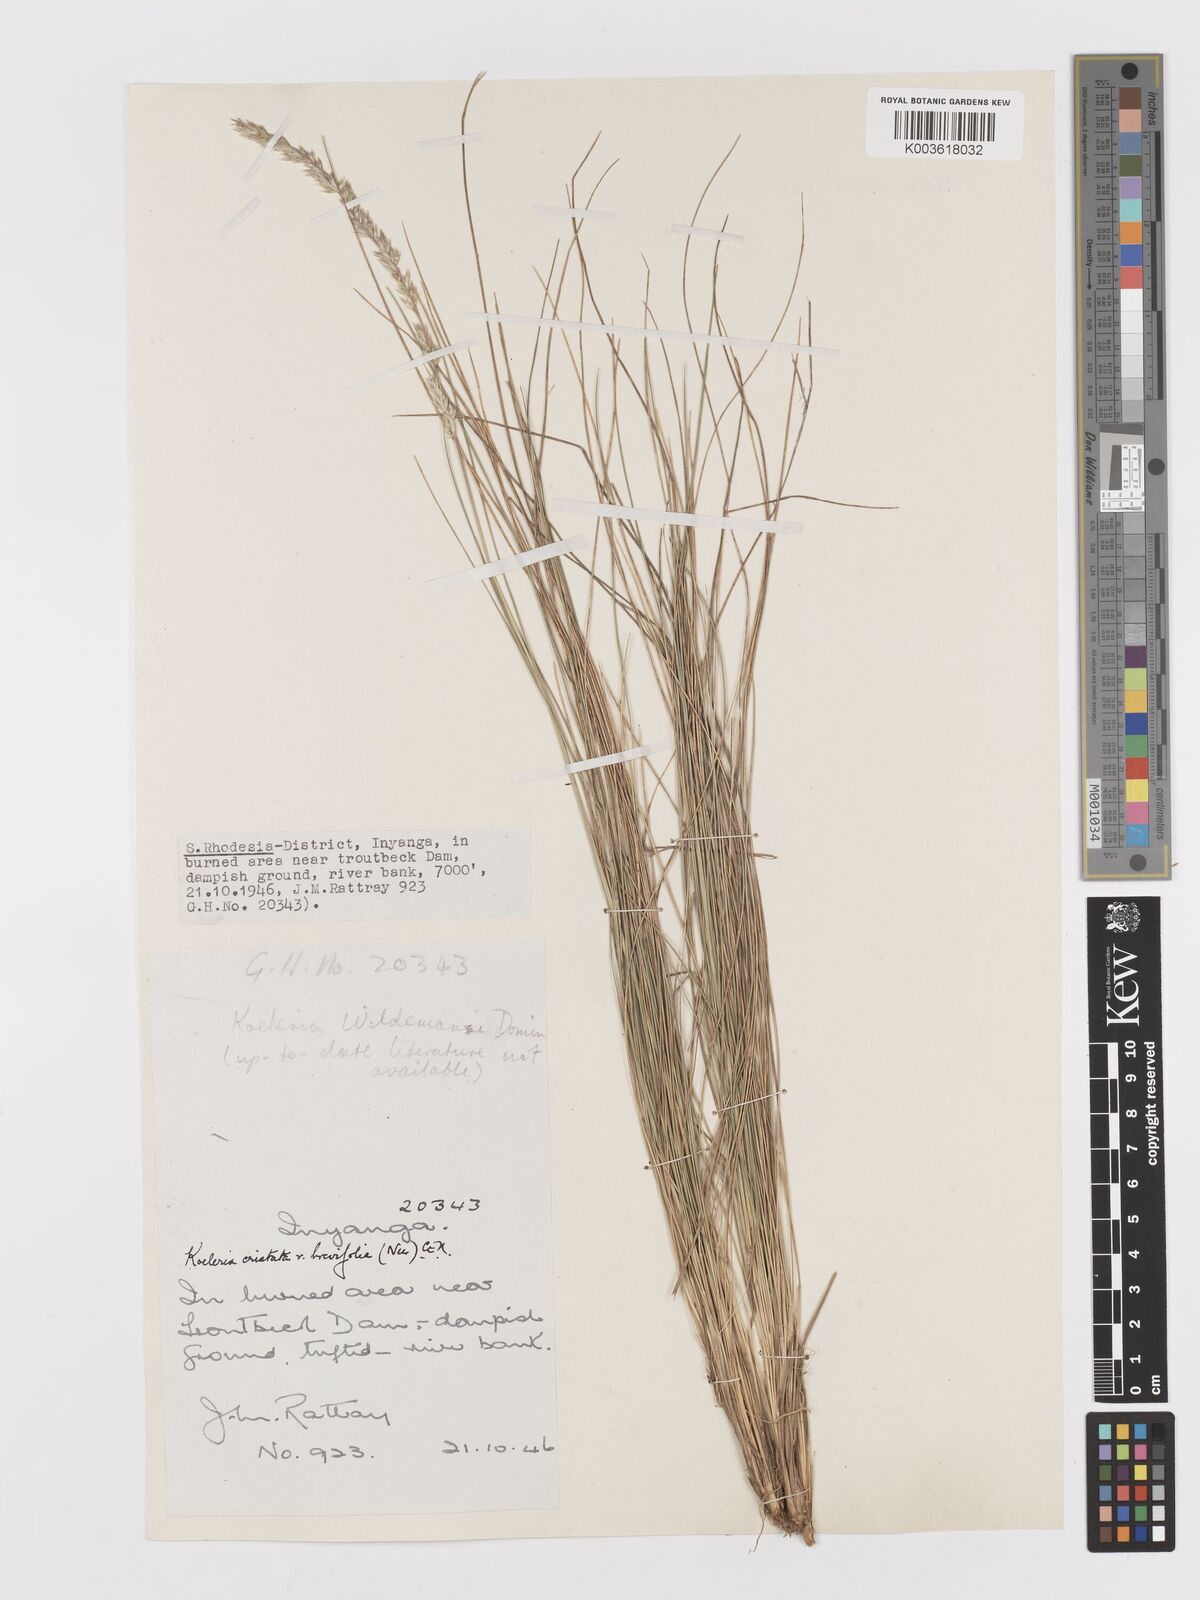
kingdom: Plantae
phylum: Tracheophyta
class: Liliopsida
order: Poales
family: Poaceae
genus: Koeleria
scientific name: Koeleria capensis
